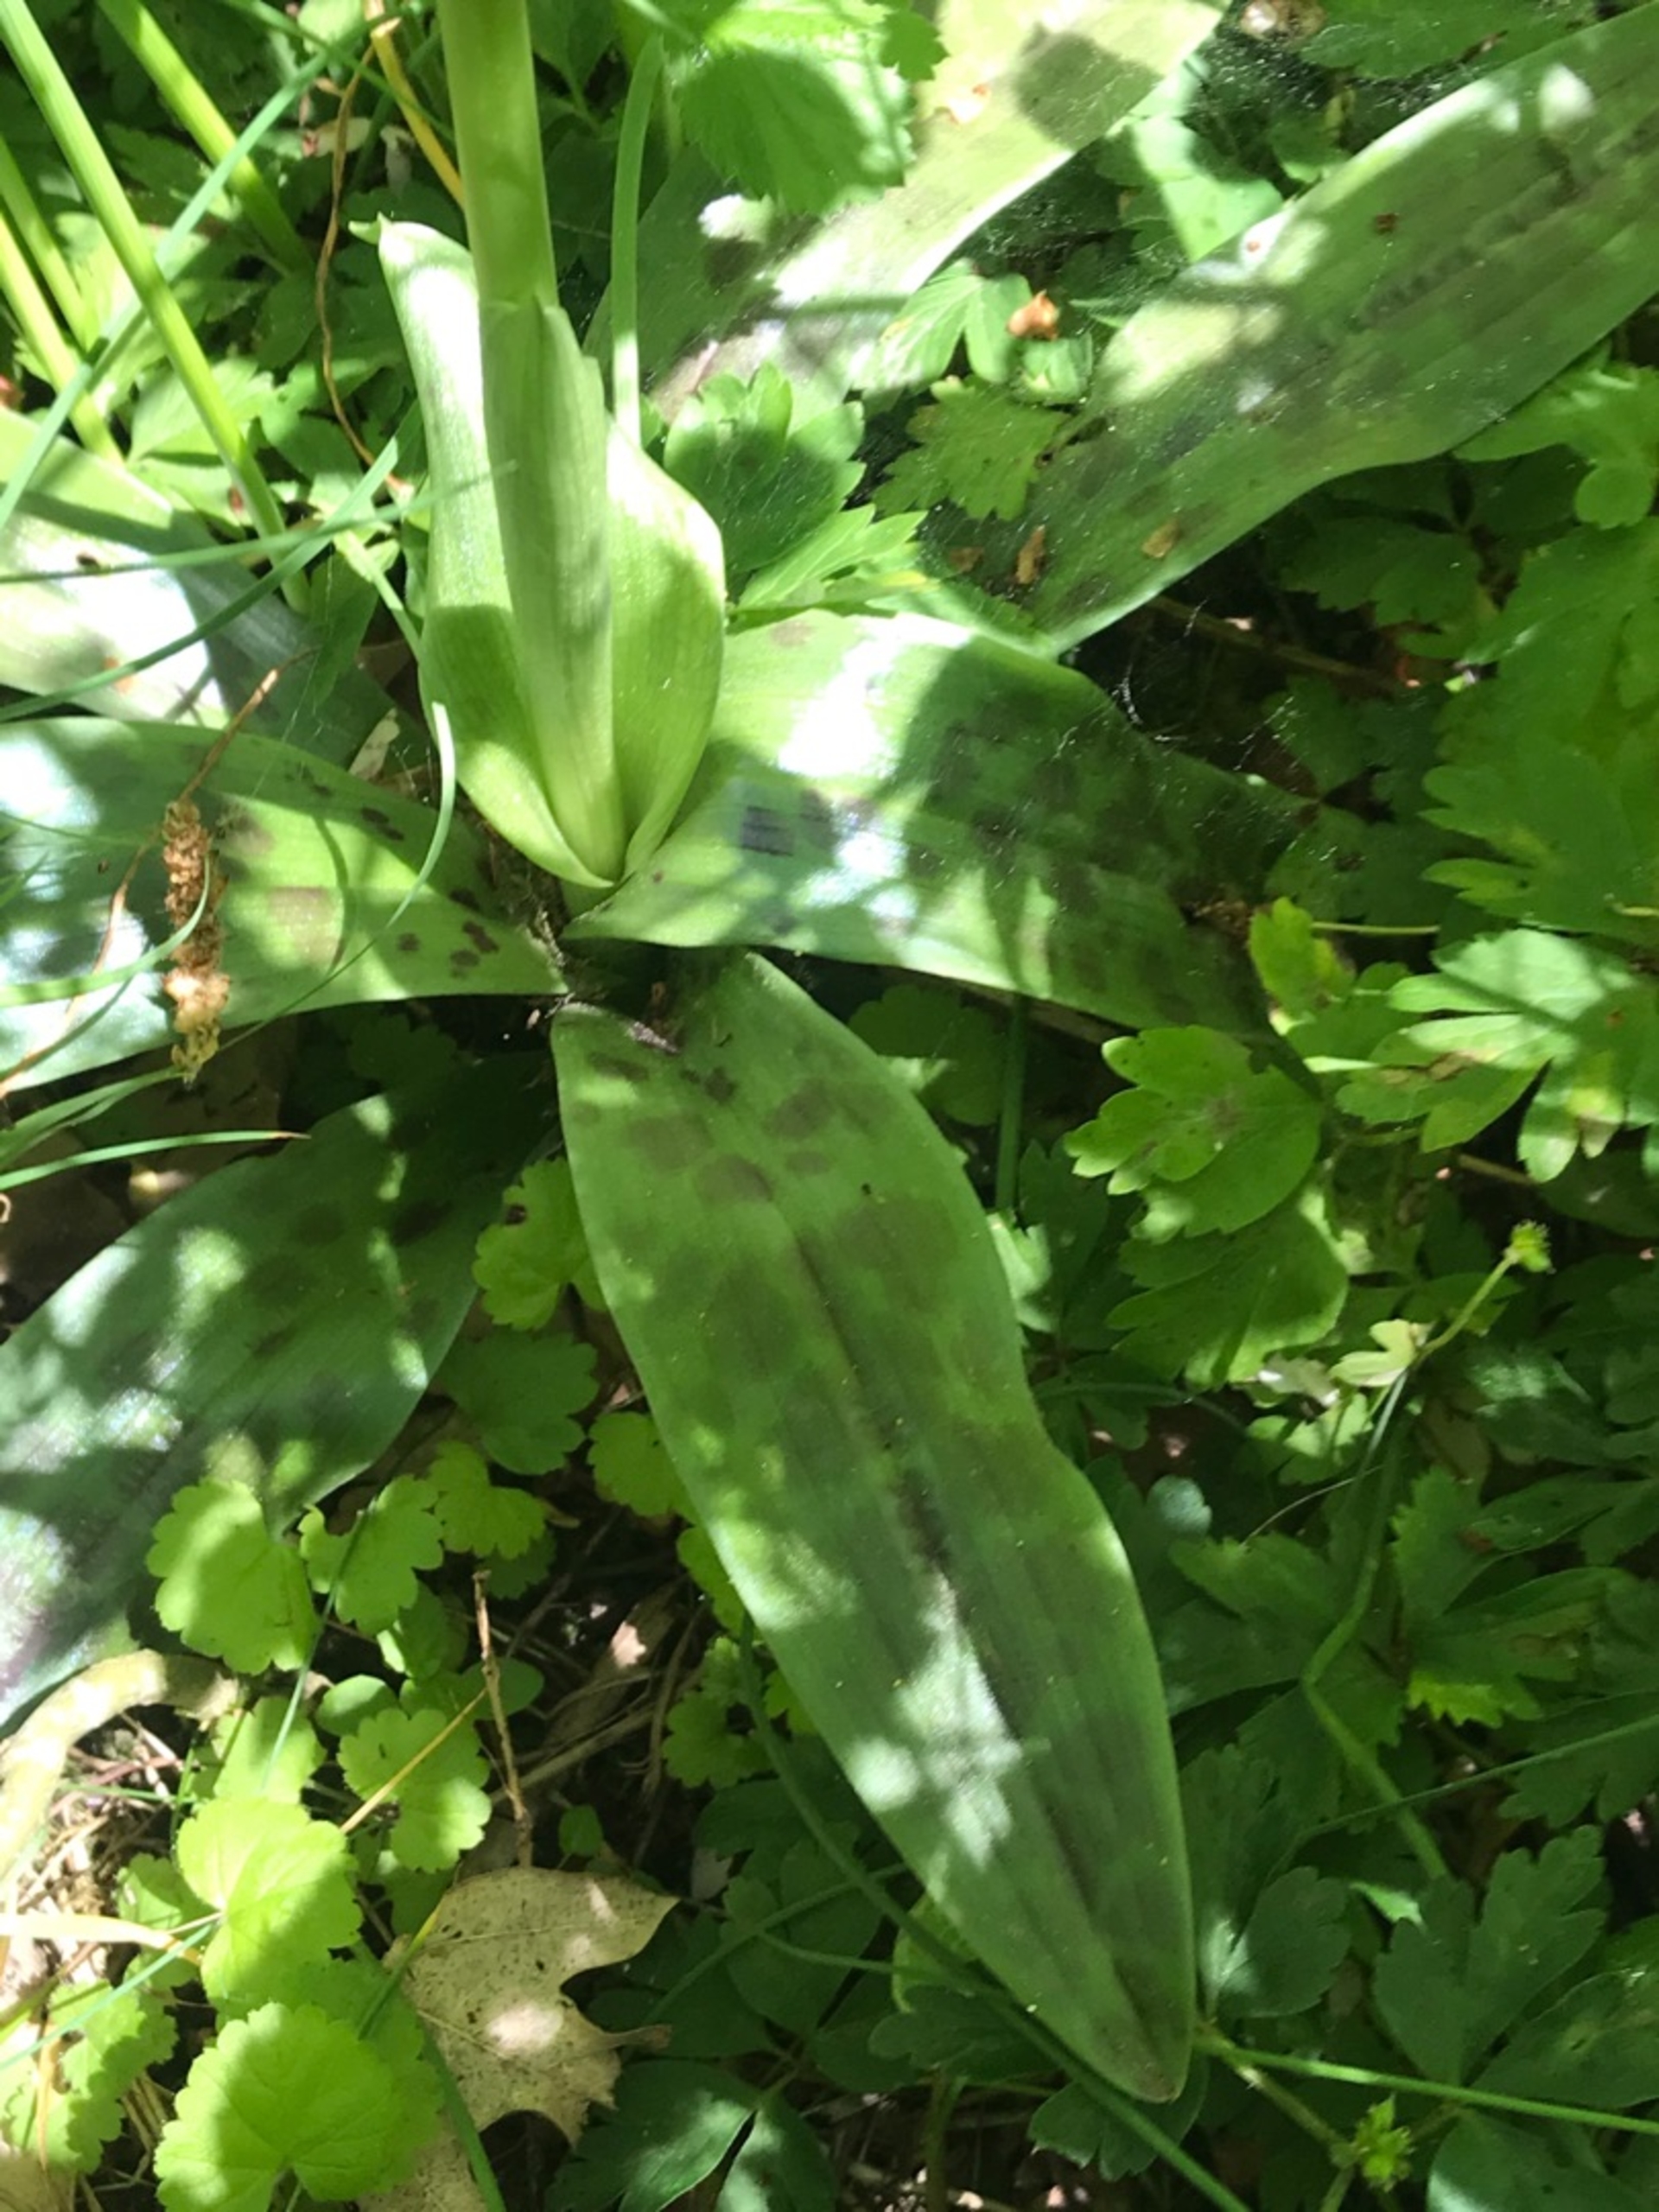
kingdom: Plantae
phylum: Tracheophyta
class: Liliopsida
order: Asparagales
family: Orchidaceae
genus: Orchis
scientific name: Orchis mascula
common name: Tyndakset gøgeurt
